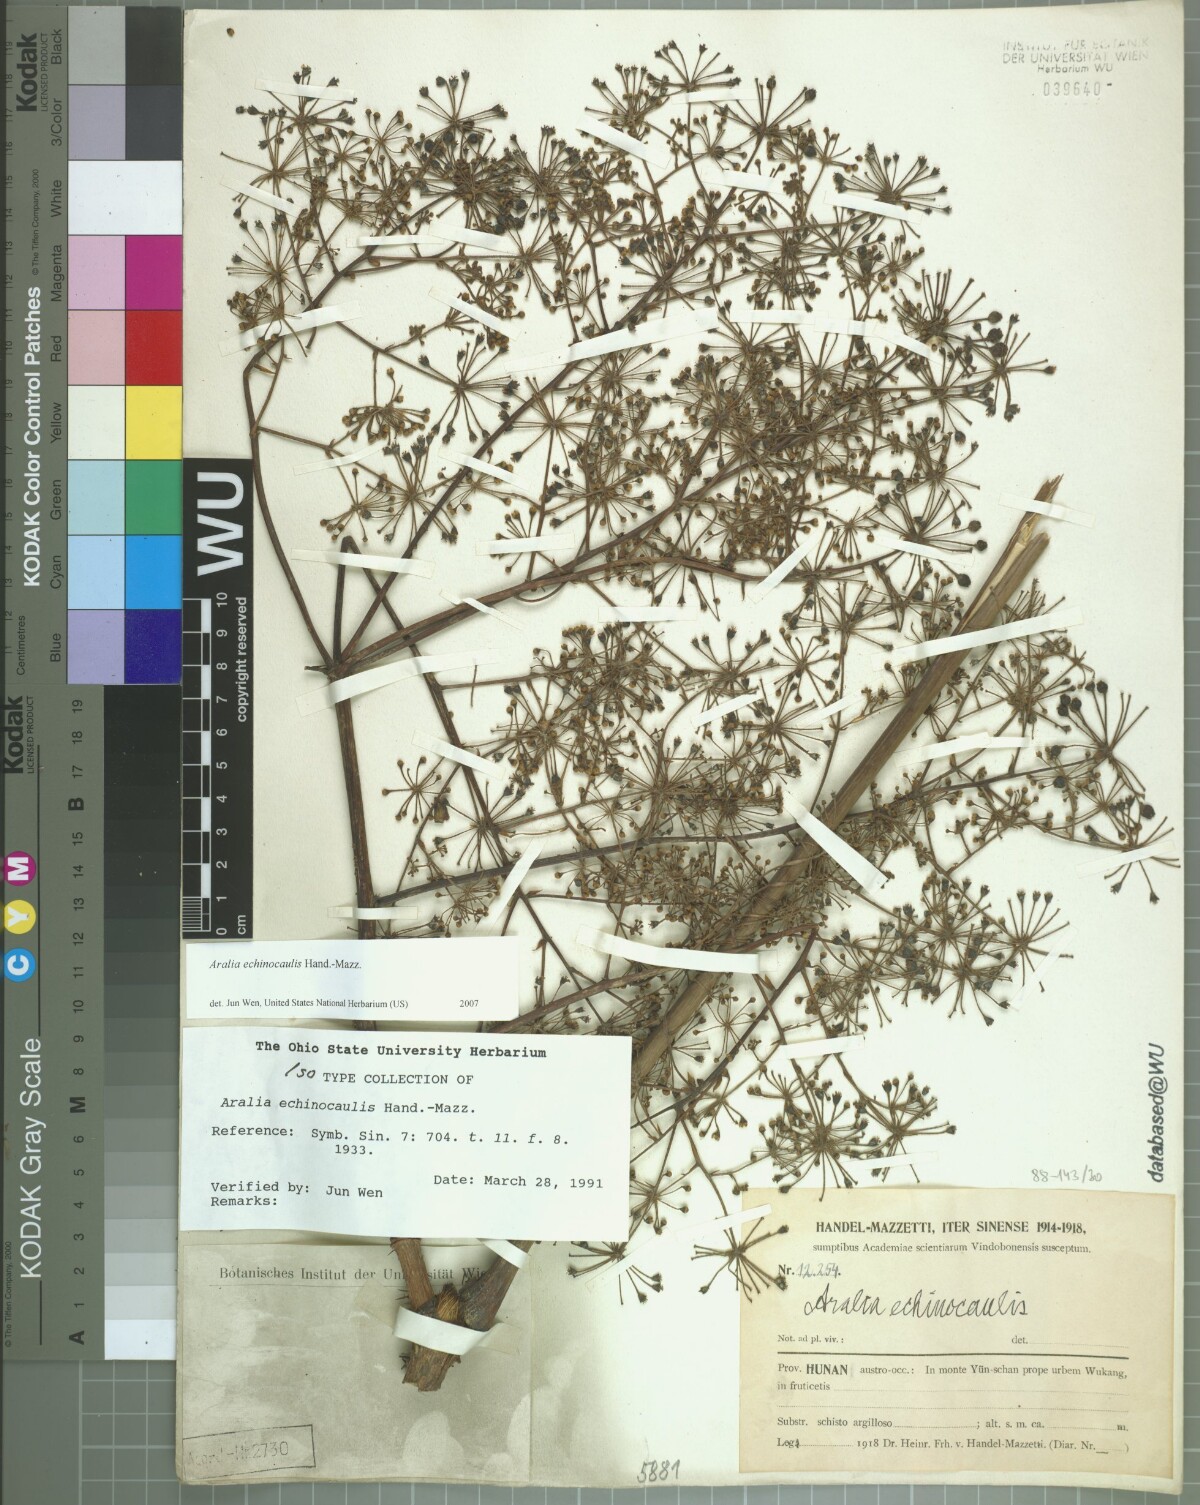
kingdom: Plantae
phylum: Tracheophyta
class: Magnoliopsida
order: Apiales
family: Araliaceae
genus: Aralia
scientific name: Aralia echinocaulis
